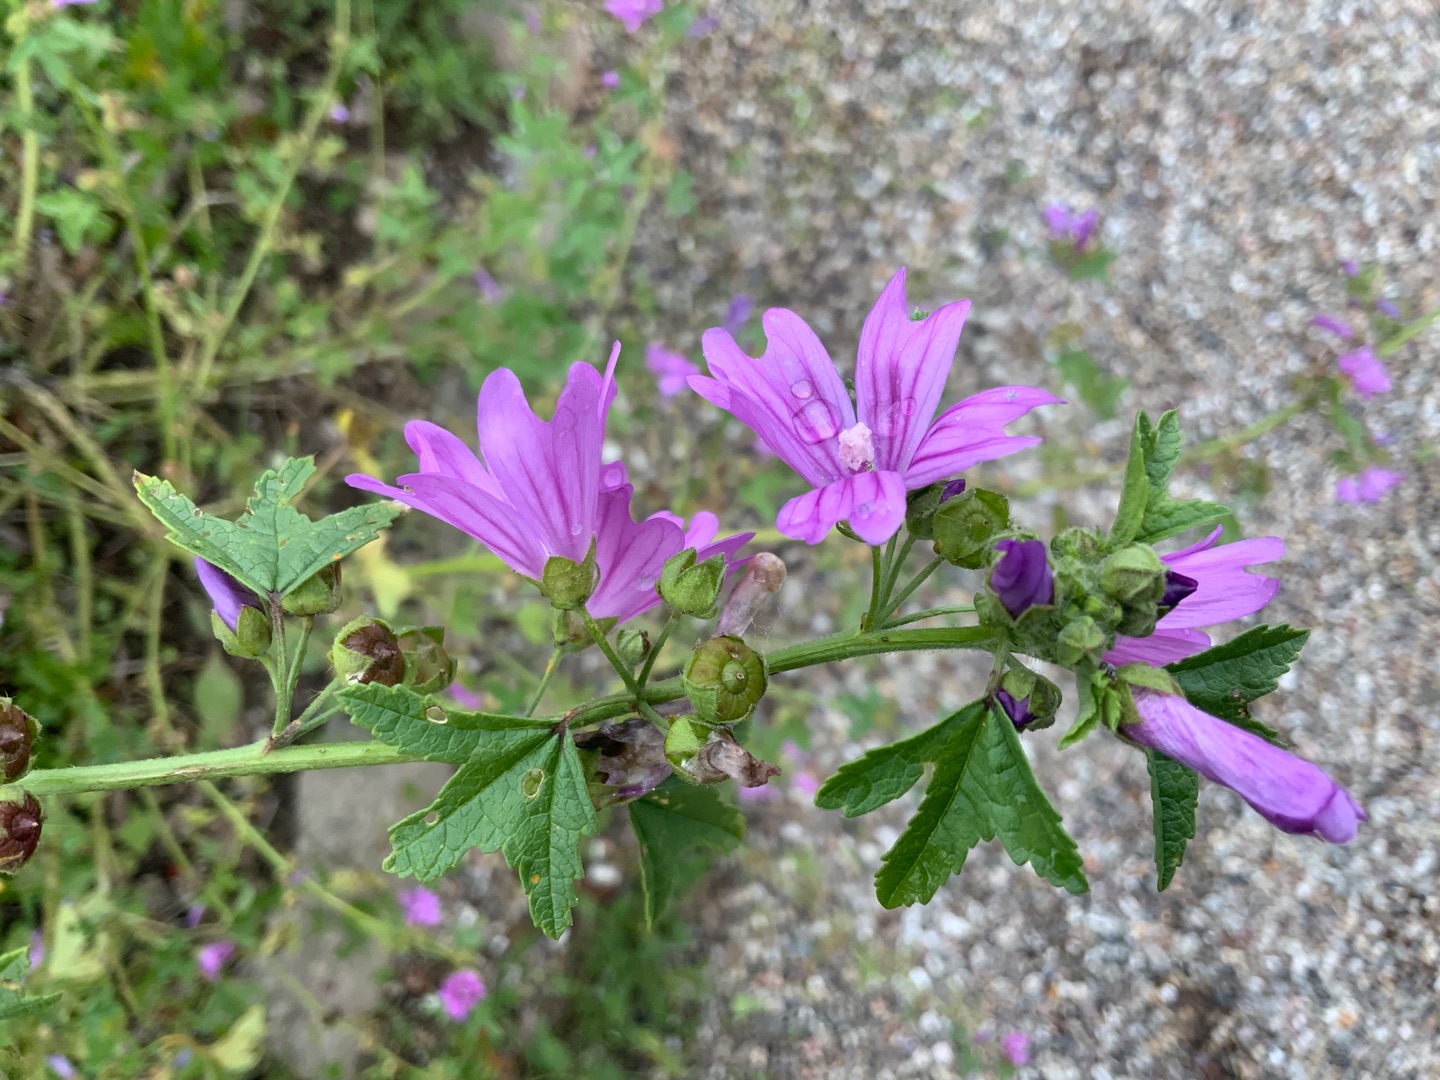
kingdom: Plantae
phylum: Tracheophyta
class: Magnoliopsida
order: Malvales
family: Malvaceae
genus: Malva
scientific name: Malva sylvestris
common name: Almindelig katost
